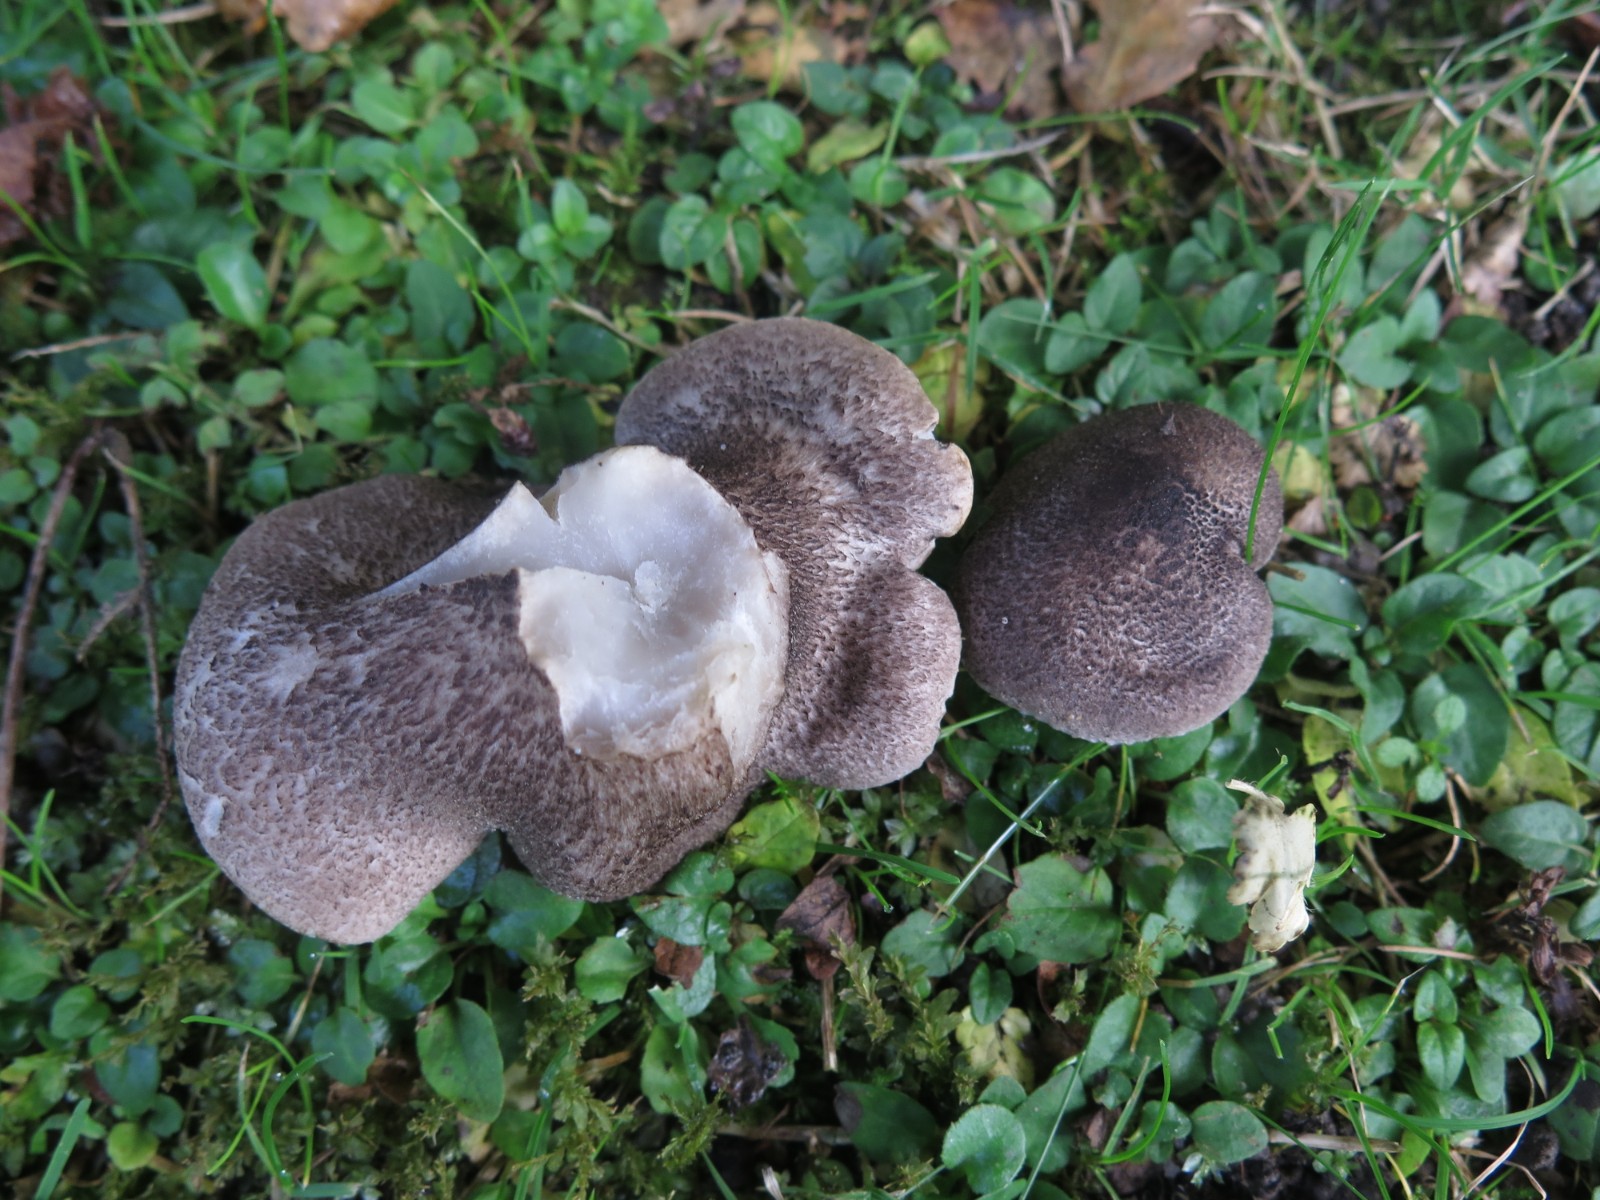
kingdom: Fungi
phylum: Basidiomycota
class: Agaricomycetes
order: Agaricales
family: Tricholomataceae
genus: Tricholoma
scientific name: Tricholoma scalpturatum
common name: gulplettet ridderhat
